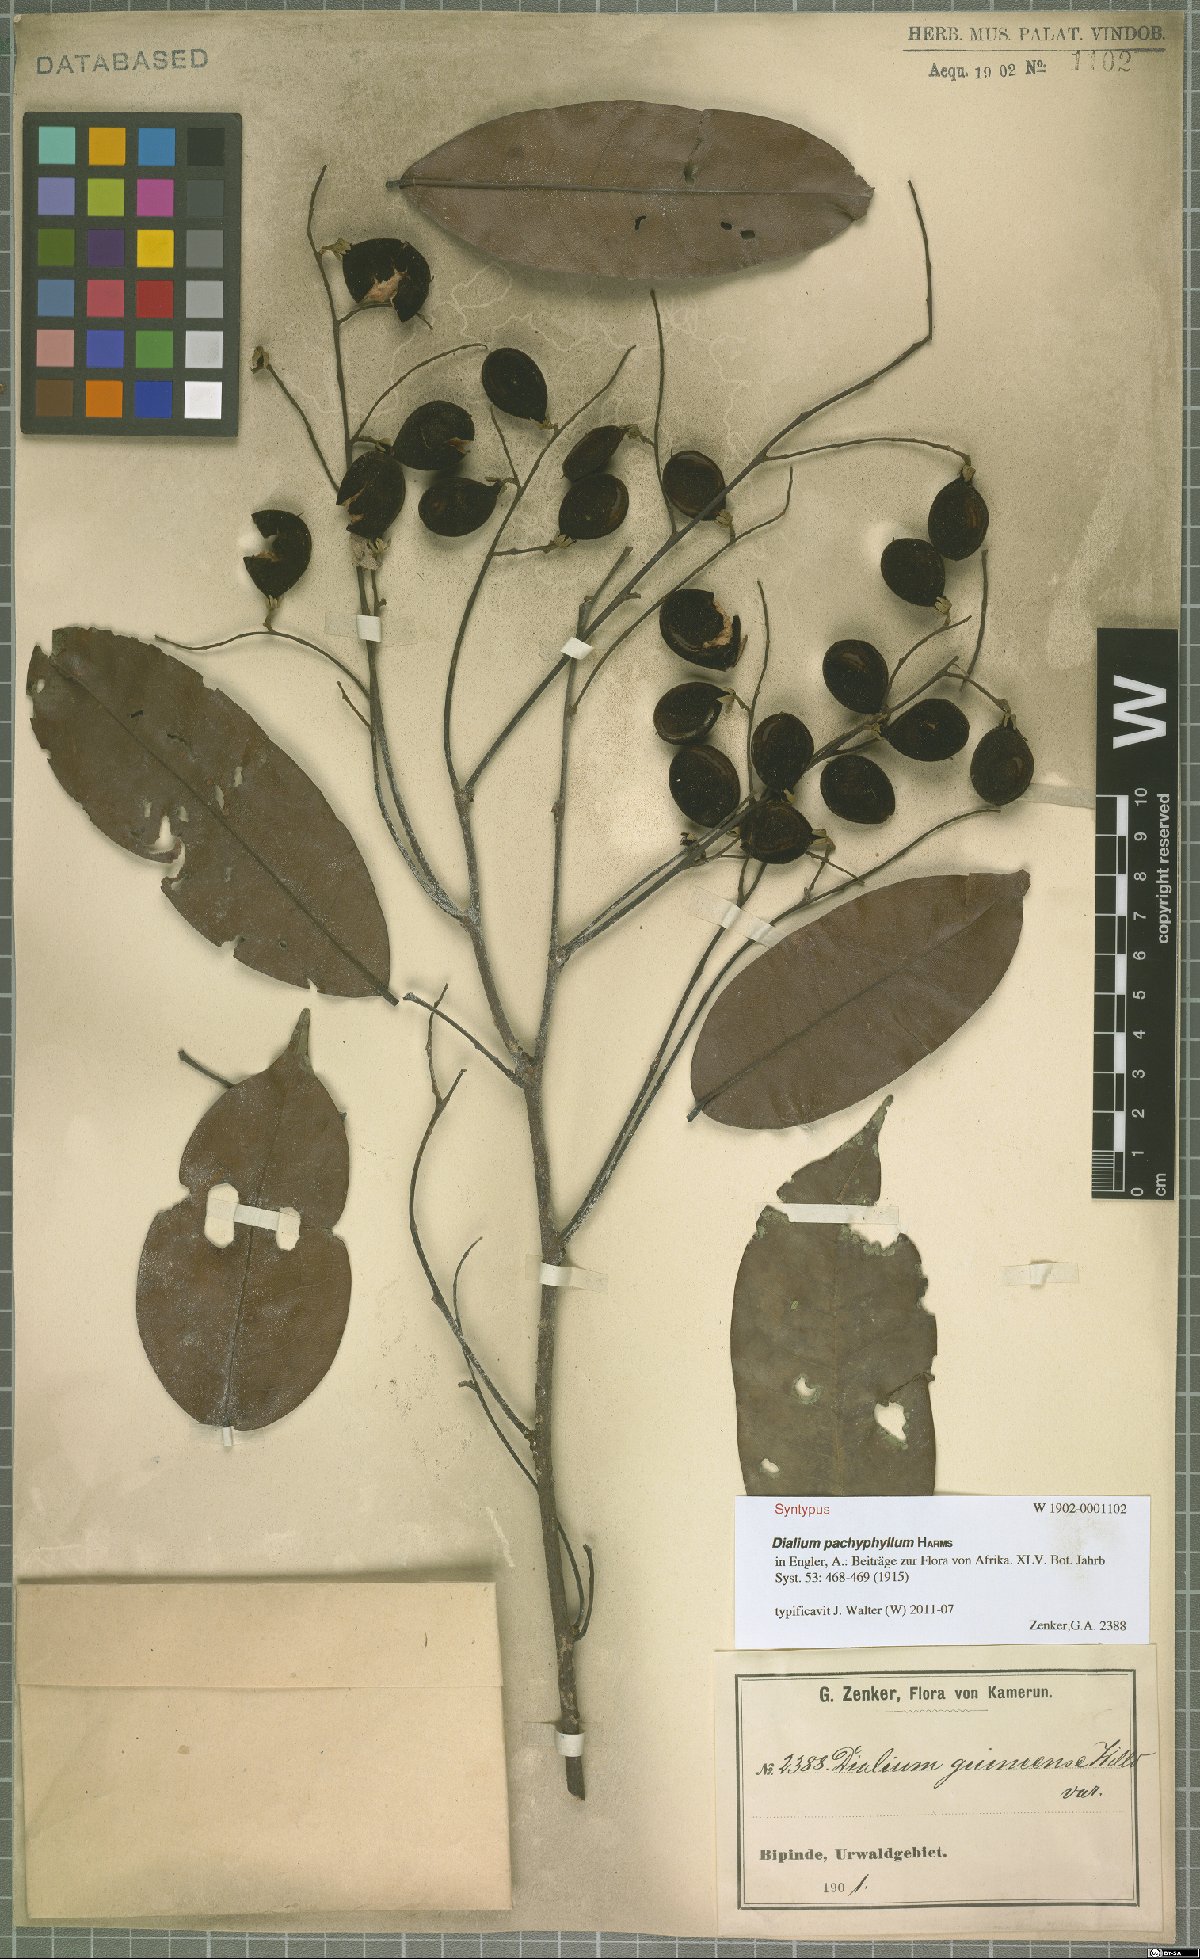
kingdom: Plantae
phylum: Tracheophyta
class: Magnoliopsida
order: Fabales
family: Fabaceae
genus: Dialium
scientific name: Dialium pachyphyllum
